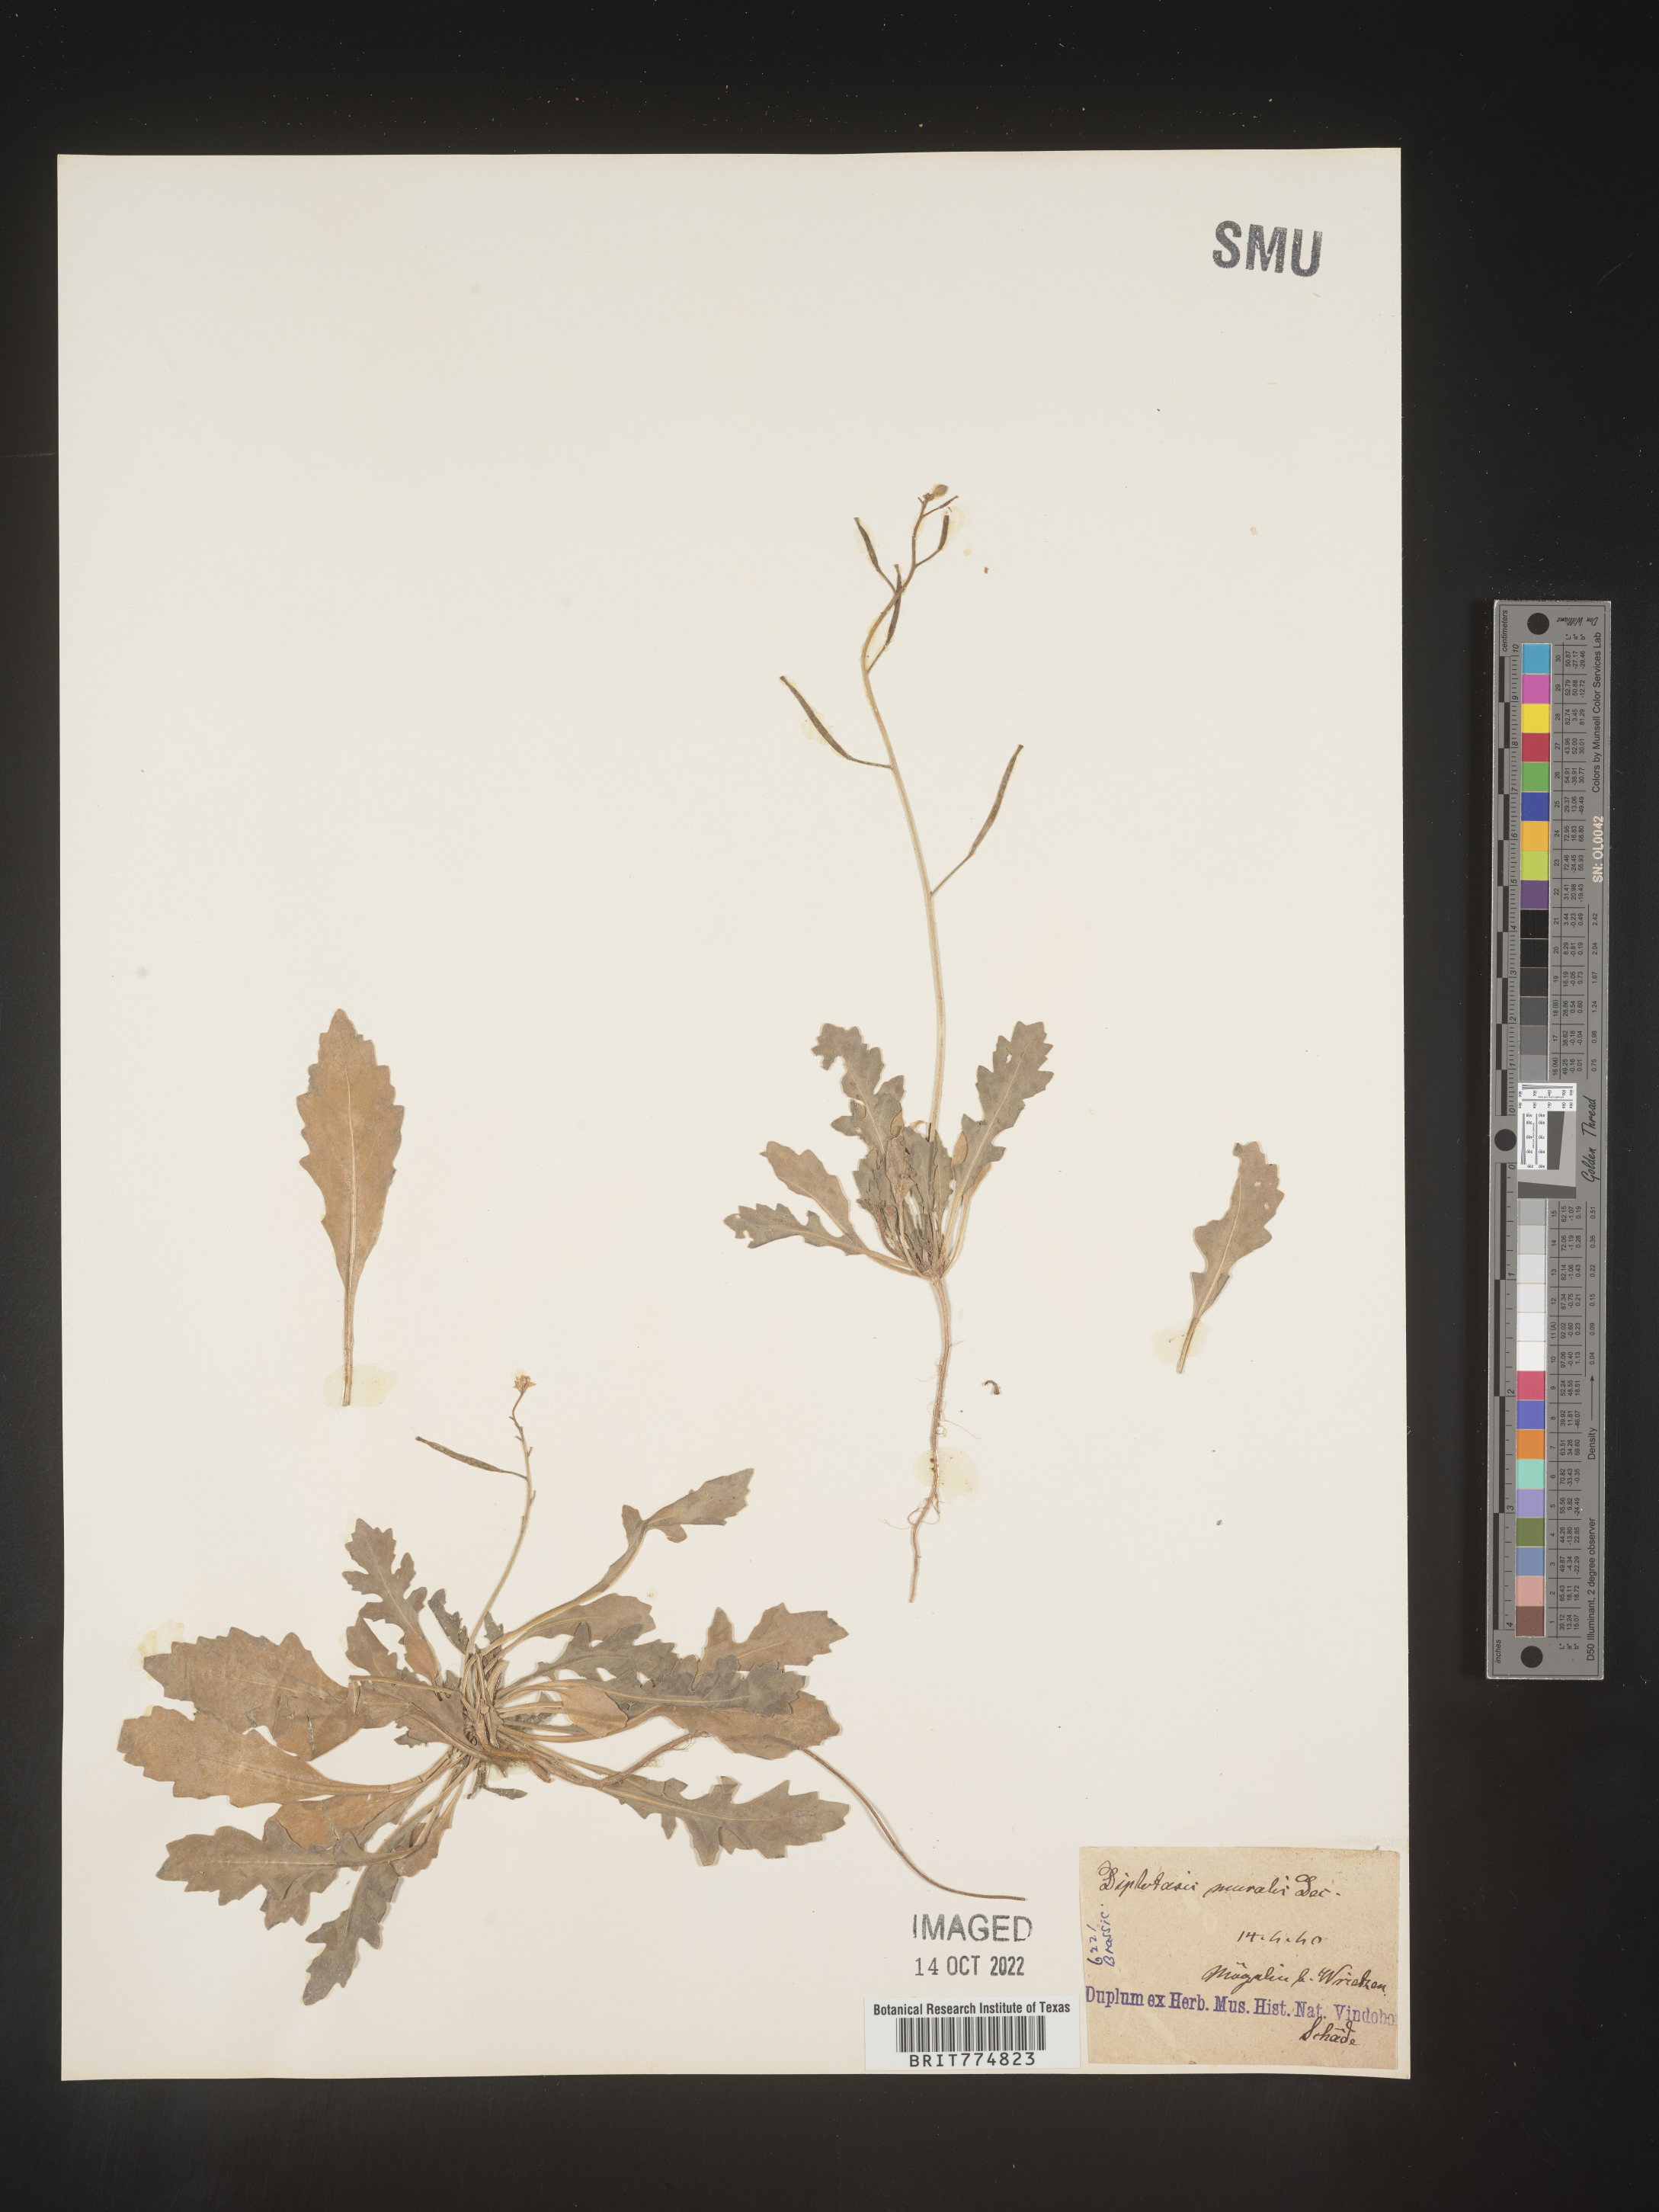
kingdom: Plantae
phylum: Tracheophyta
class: Magnoliopsida
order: Brassicales
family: Brassicaceae
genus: Diplotaxis
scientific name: Diplotaxis
